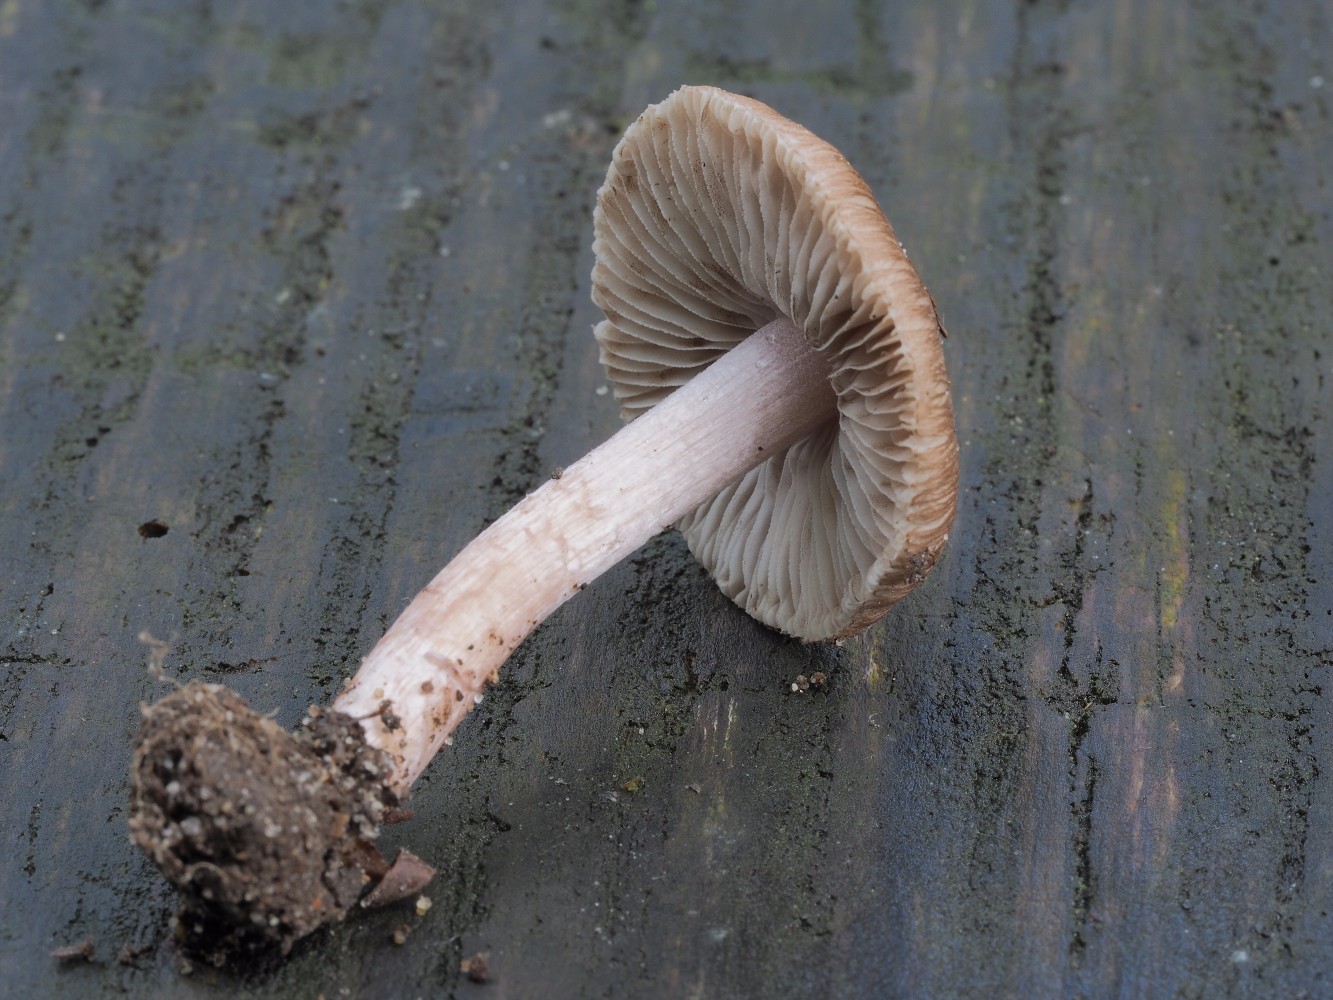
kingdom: Fungi
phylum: Basidiomycota
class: Agaricomycetes
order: Agaricales
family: Inocybaceae
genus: Inocybe
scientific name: Inocybe
